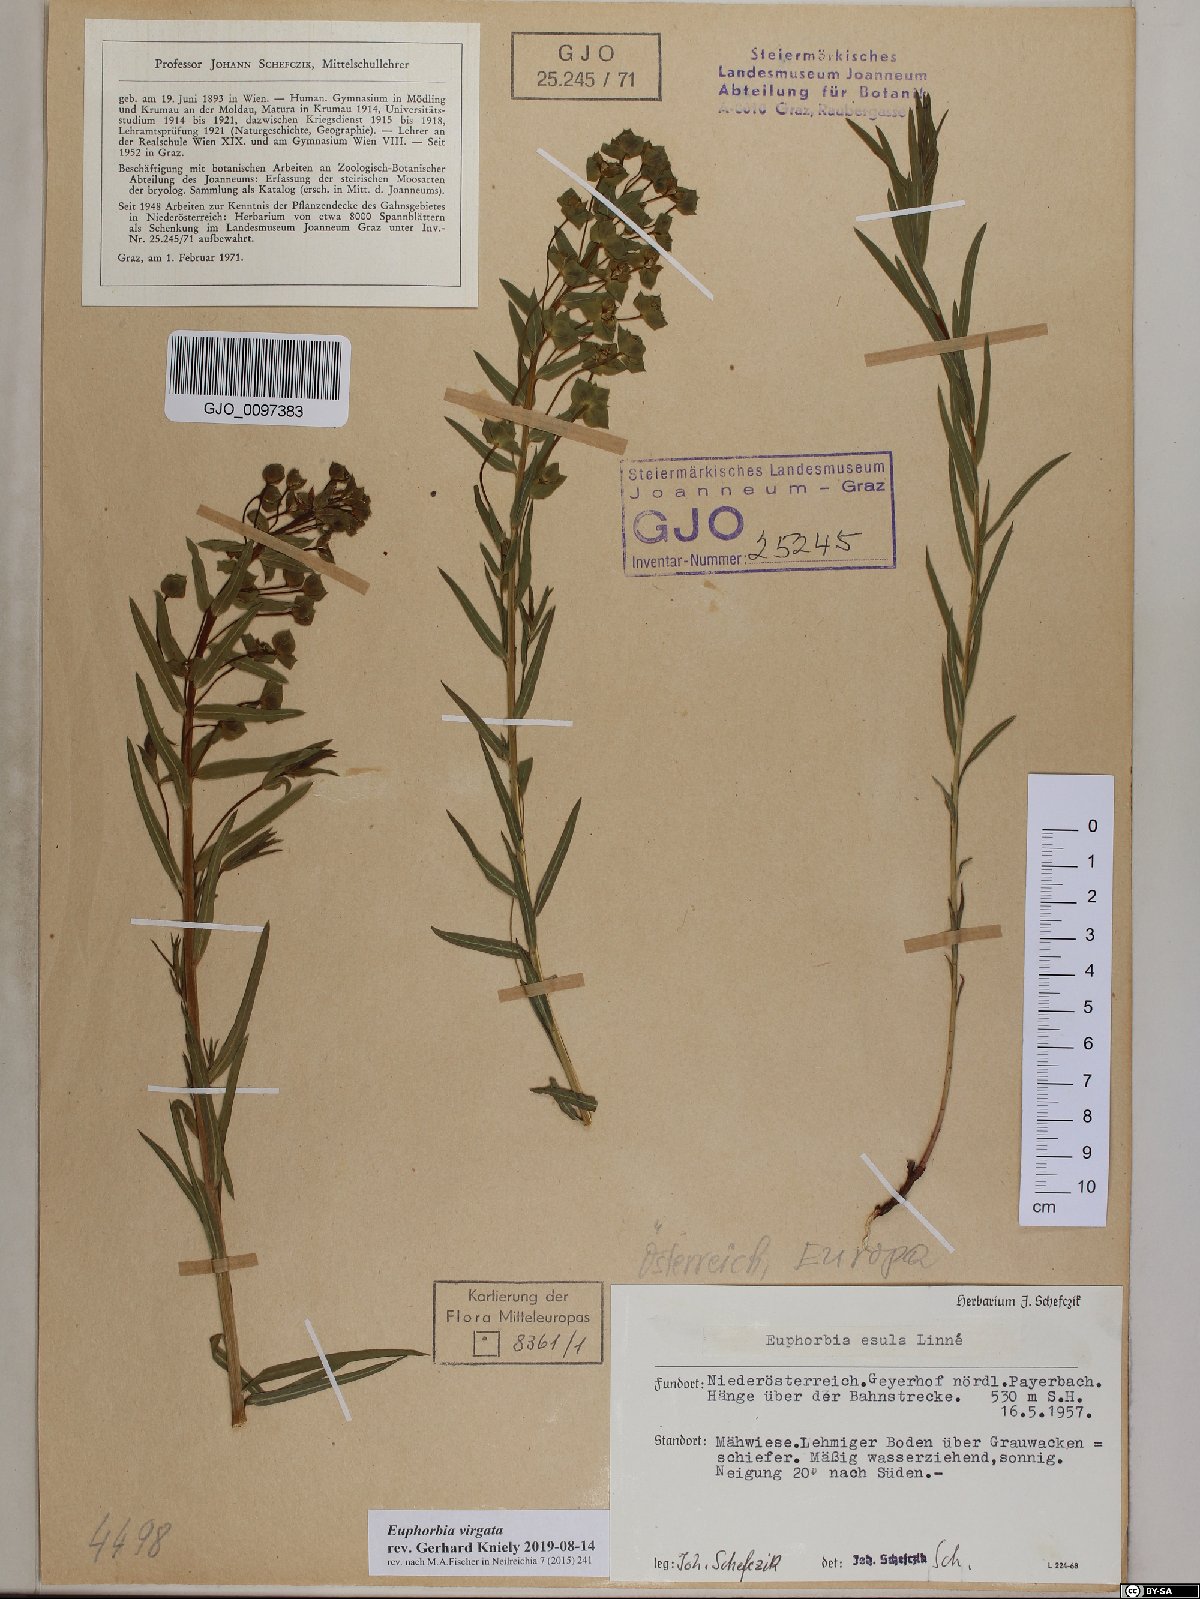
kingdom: Plantae
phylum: Tracheophyta
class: Magnoliopsida
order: Malpighiales
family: Euphorbiaceae
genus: Euphorbia
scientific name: Euphorbia virgata
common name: Leafy spurge
